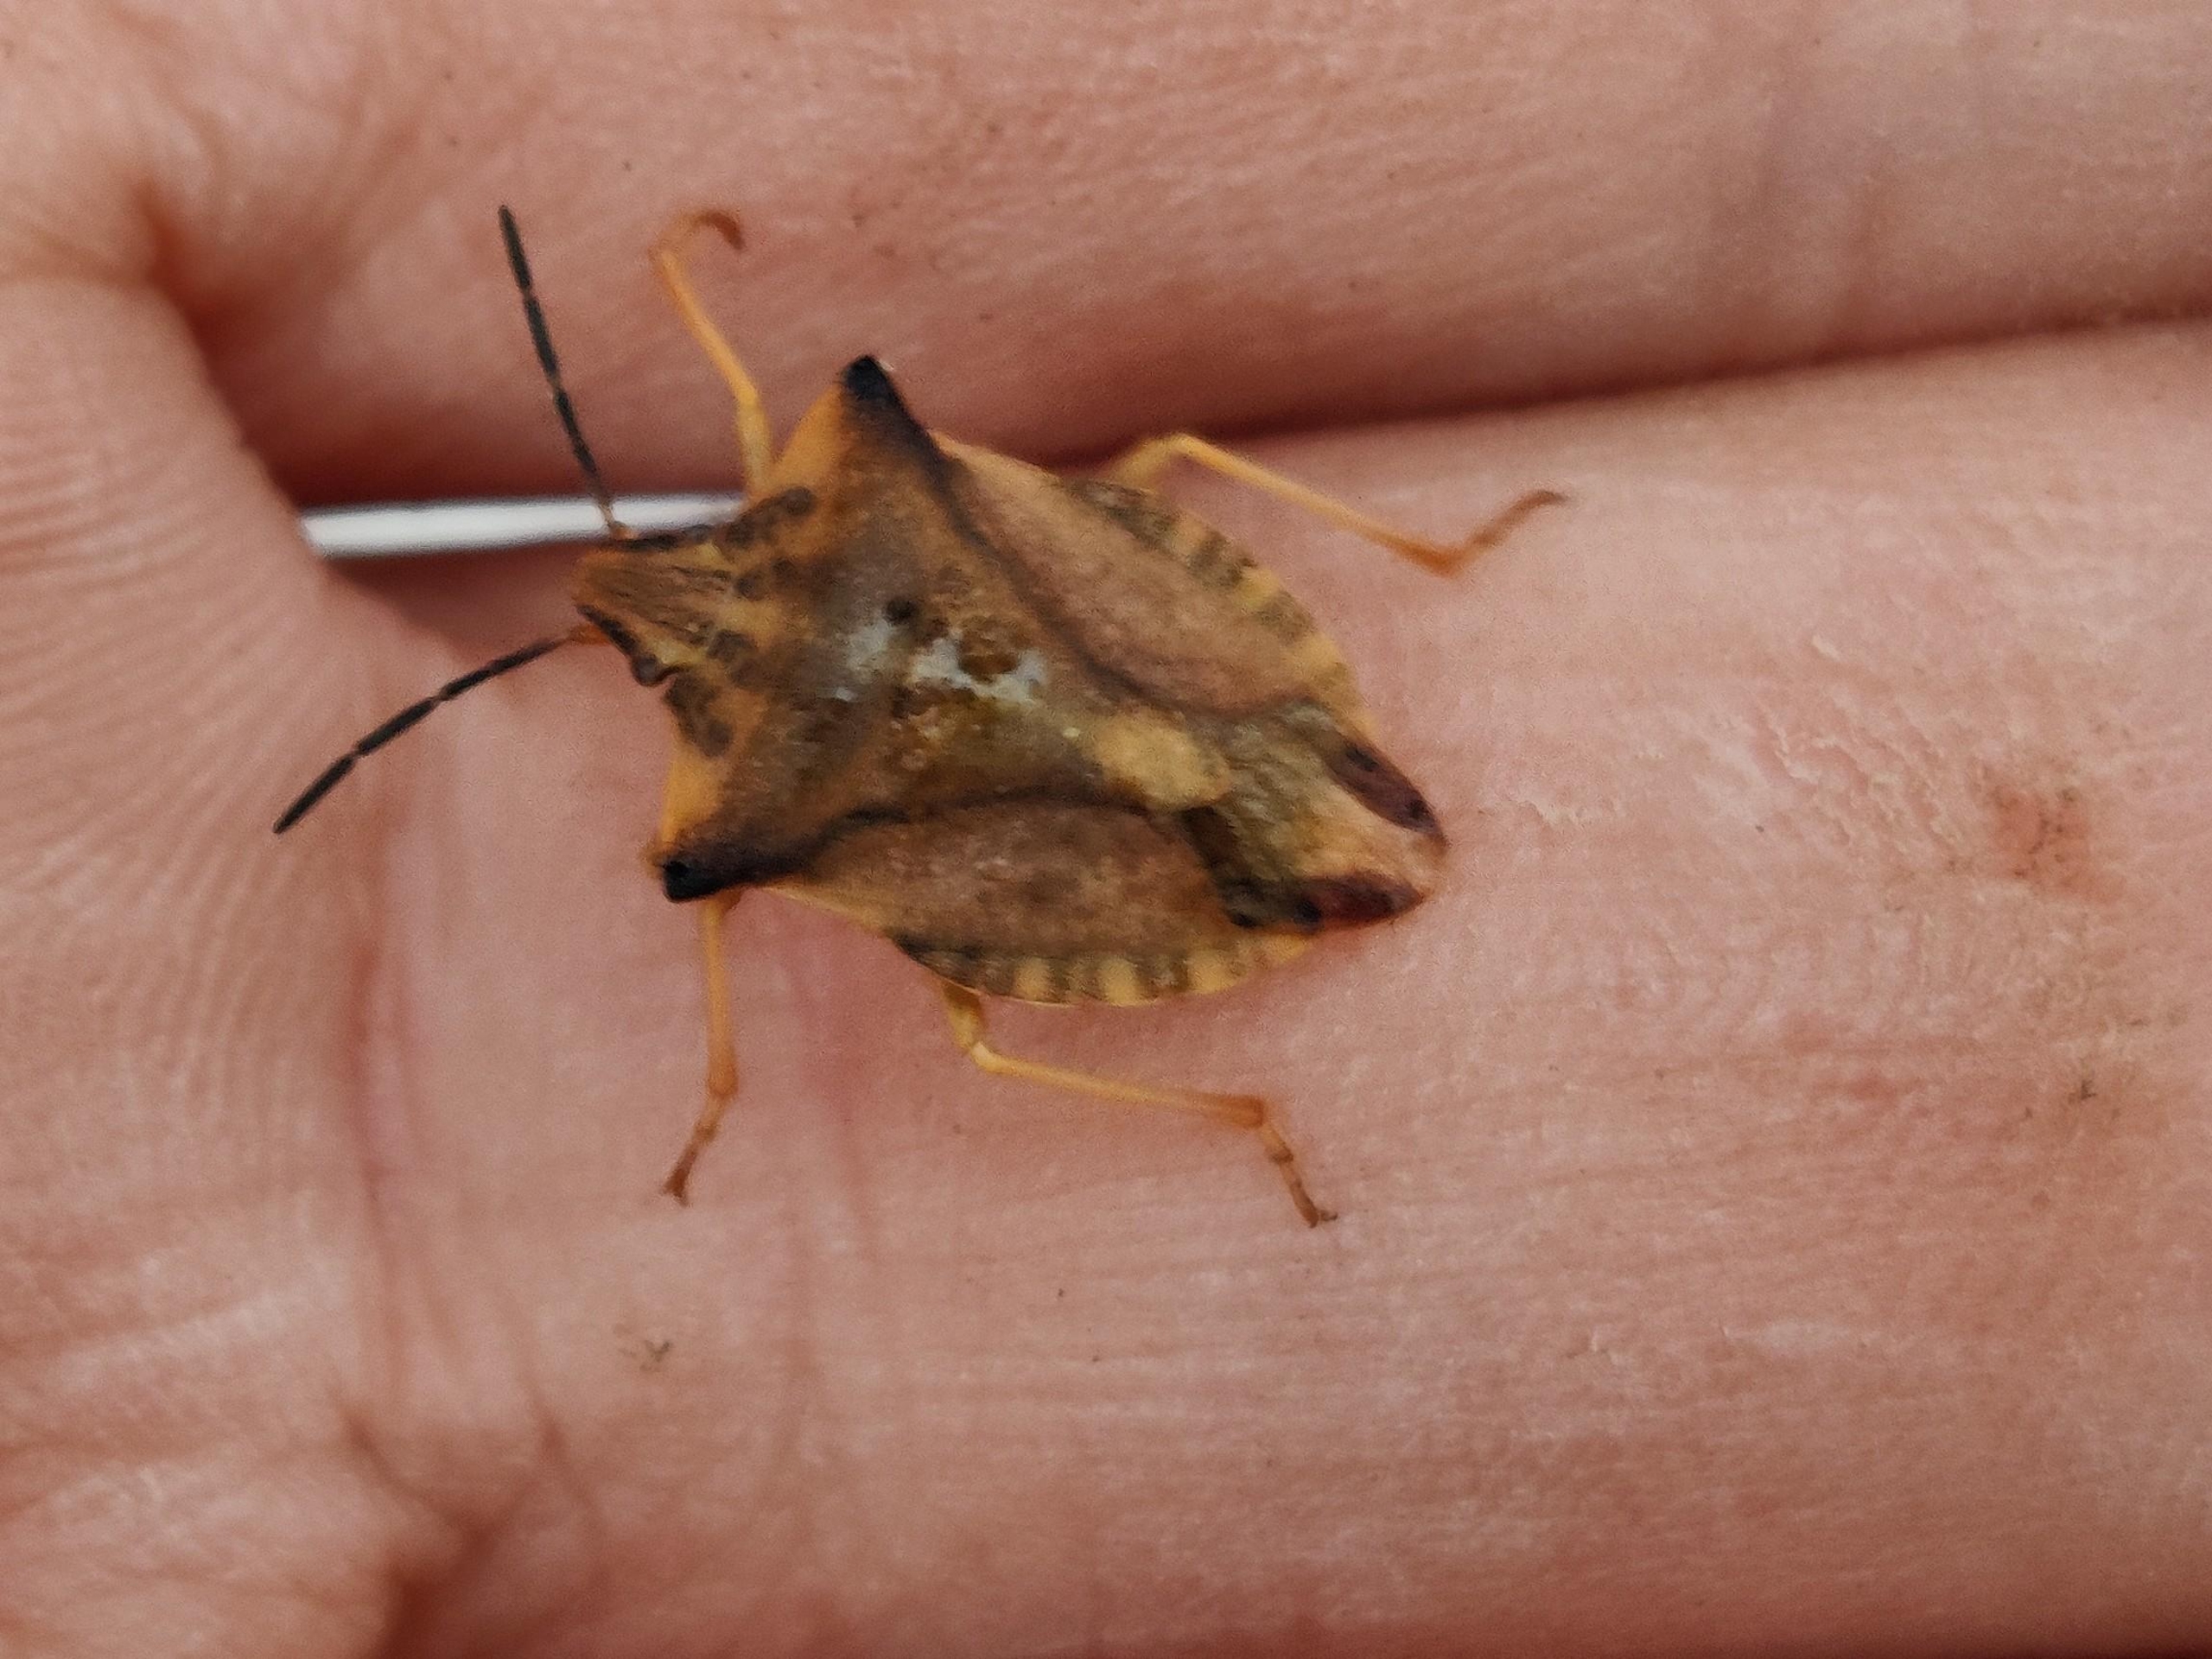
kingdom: Animalia
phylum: Arthropoda
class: Insecta
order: Hemiptera
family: Pentatomidae
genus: Carpocoris
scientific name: Carpocoris fuscispinus
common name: Glat bredtæge
